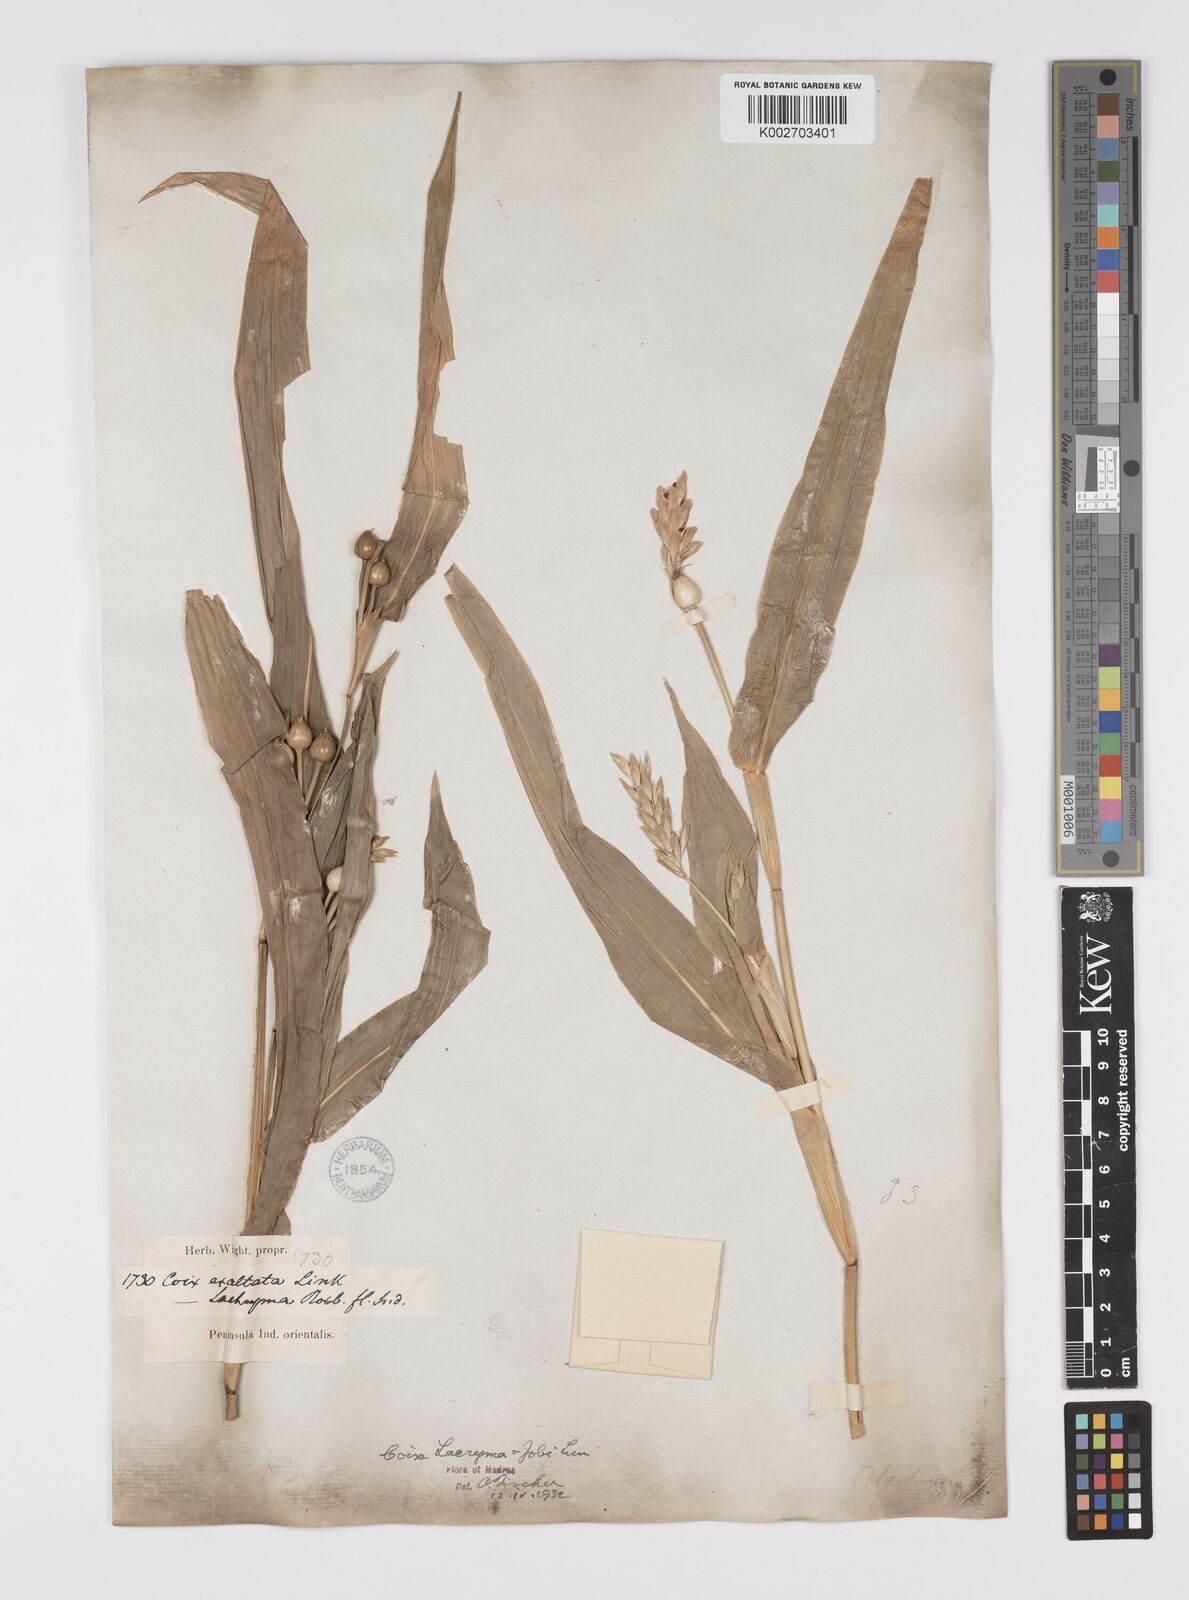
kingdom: Plantae
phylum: Tracheophyta
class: Liliopsida
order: Poales
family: Poaceae
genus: Coix
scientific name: Coix lacryma-jobi
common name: Job's tears
